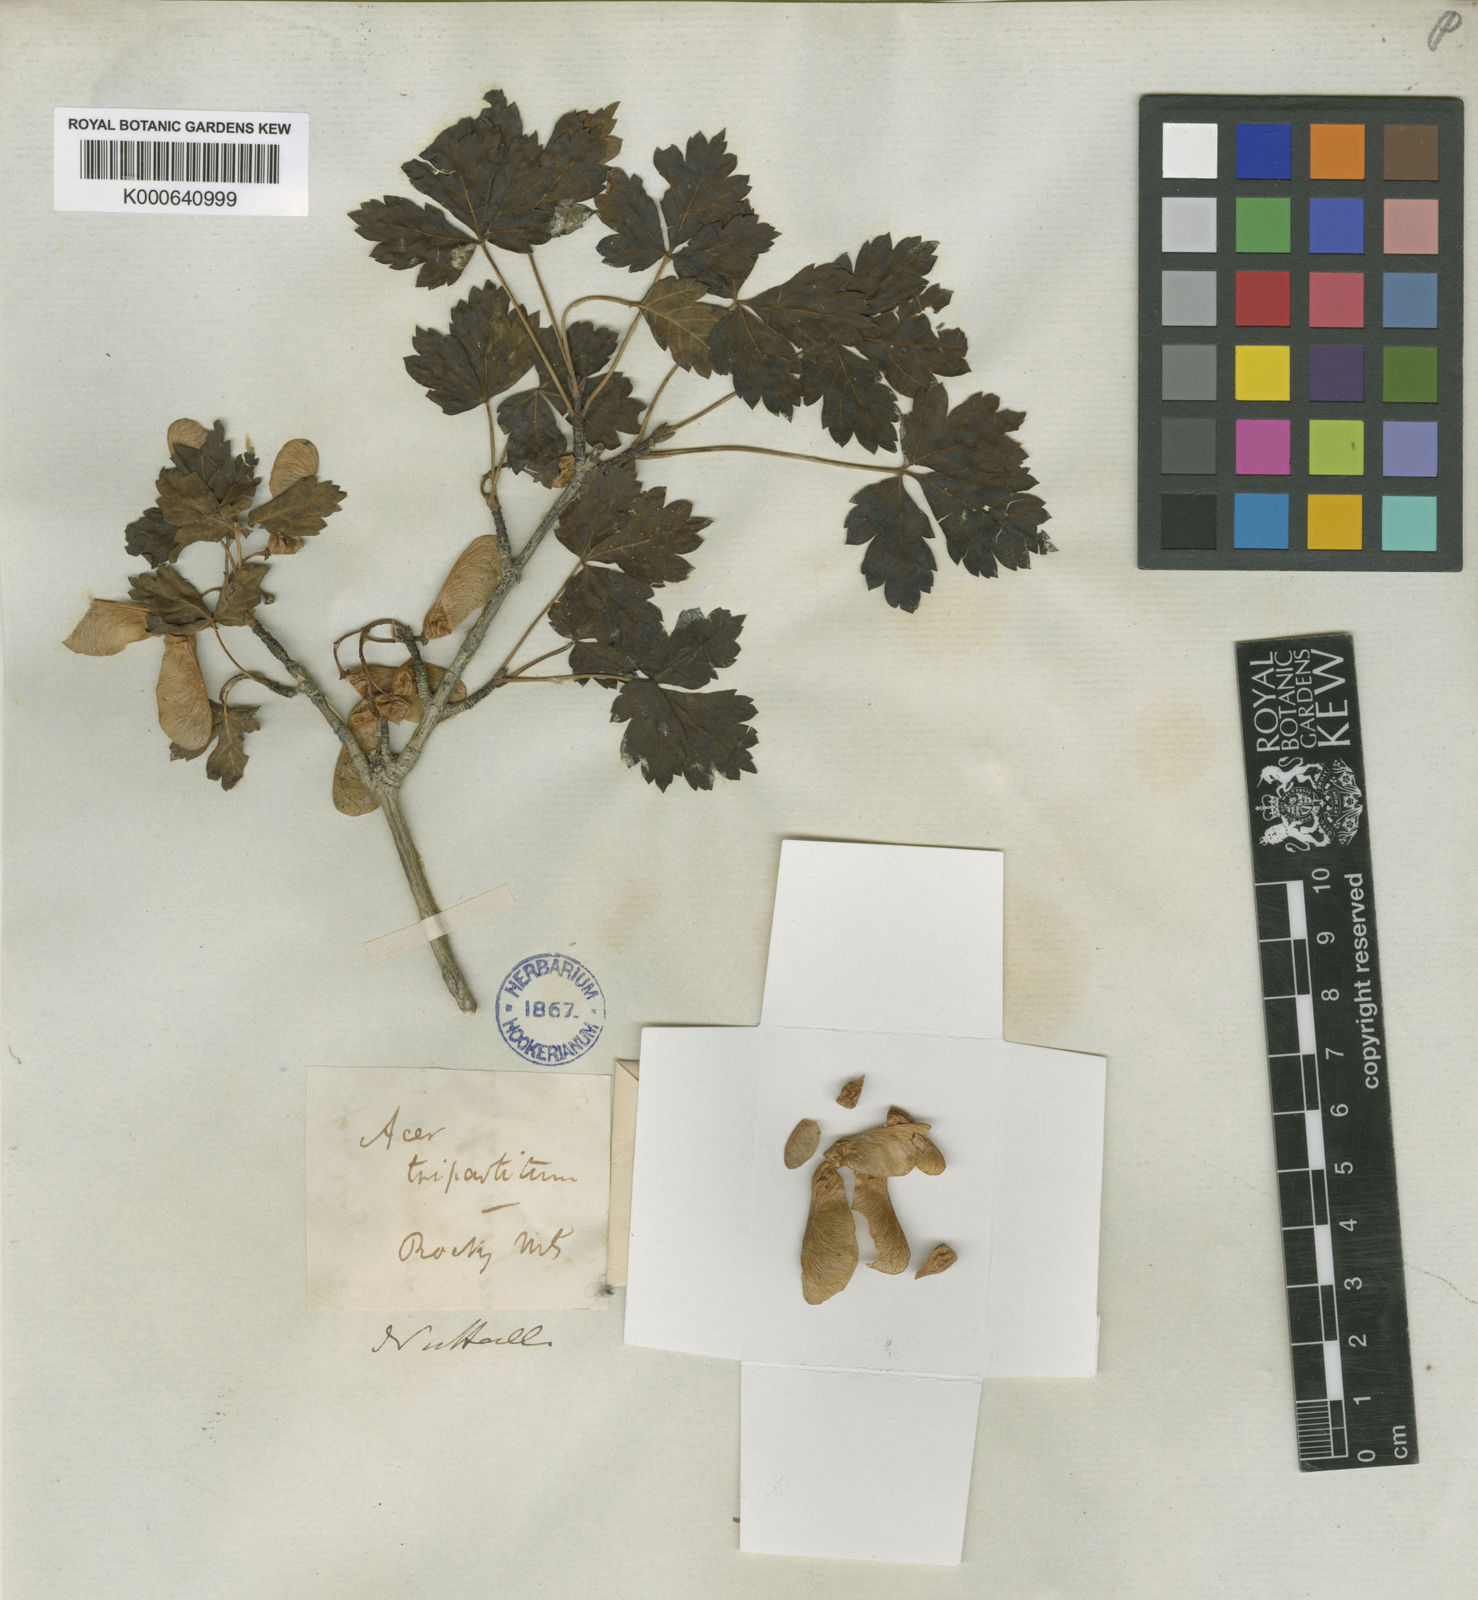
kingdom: Plantae
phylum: Tracheophyta
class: Magnoliopsida
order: Sapindales
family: Sapindaceae
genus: Acer
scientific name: Acer glabrum
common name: Rocky mountain maple
